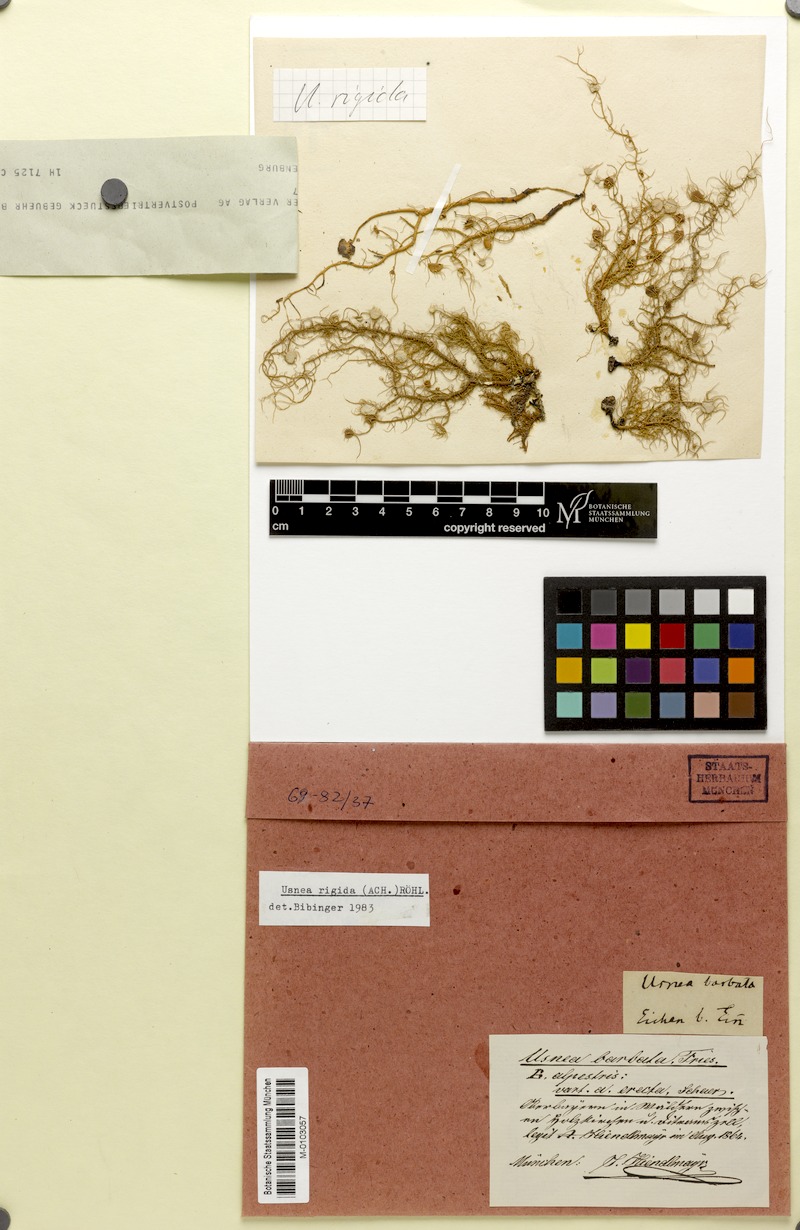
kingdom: Fungi
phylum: Ascomycota
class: Lecanoromycetes
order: Lecanorales
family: Parmeliaceae
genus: Usnea
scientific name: Usnea quasirigida
